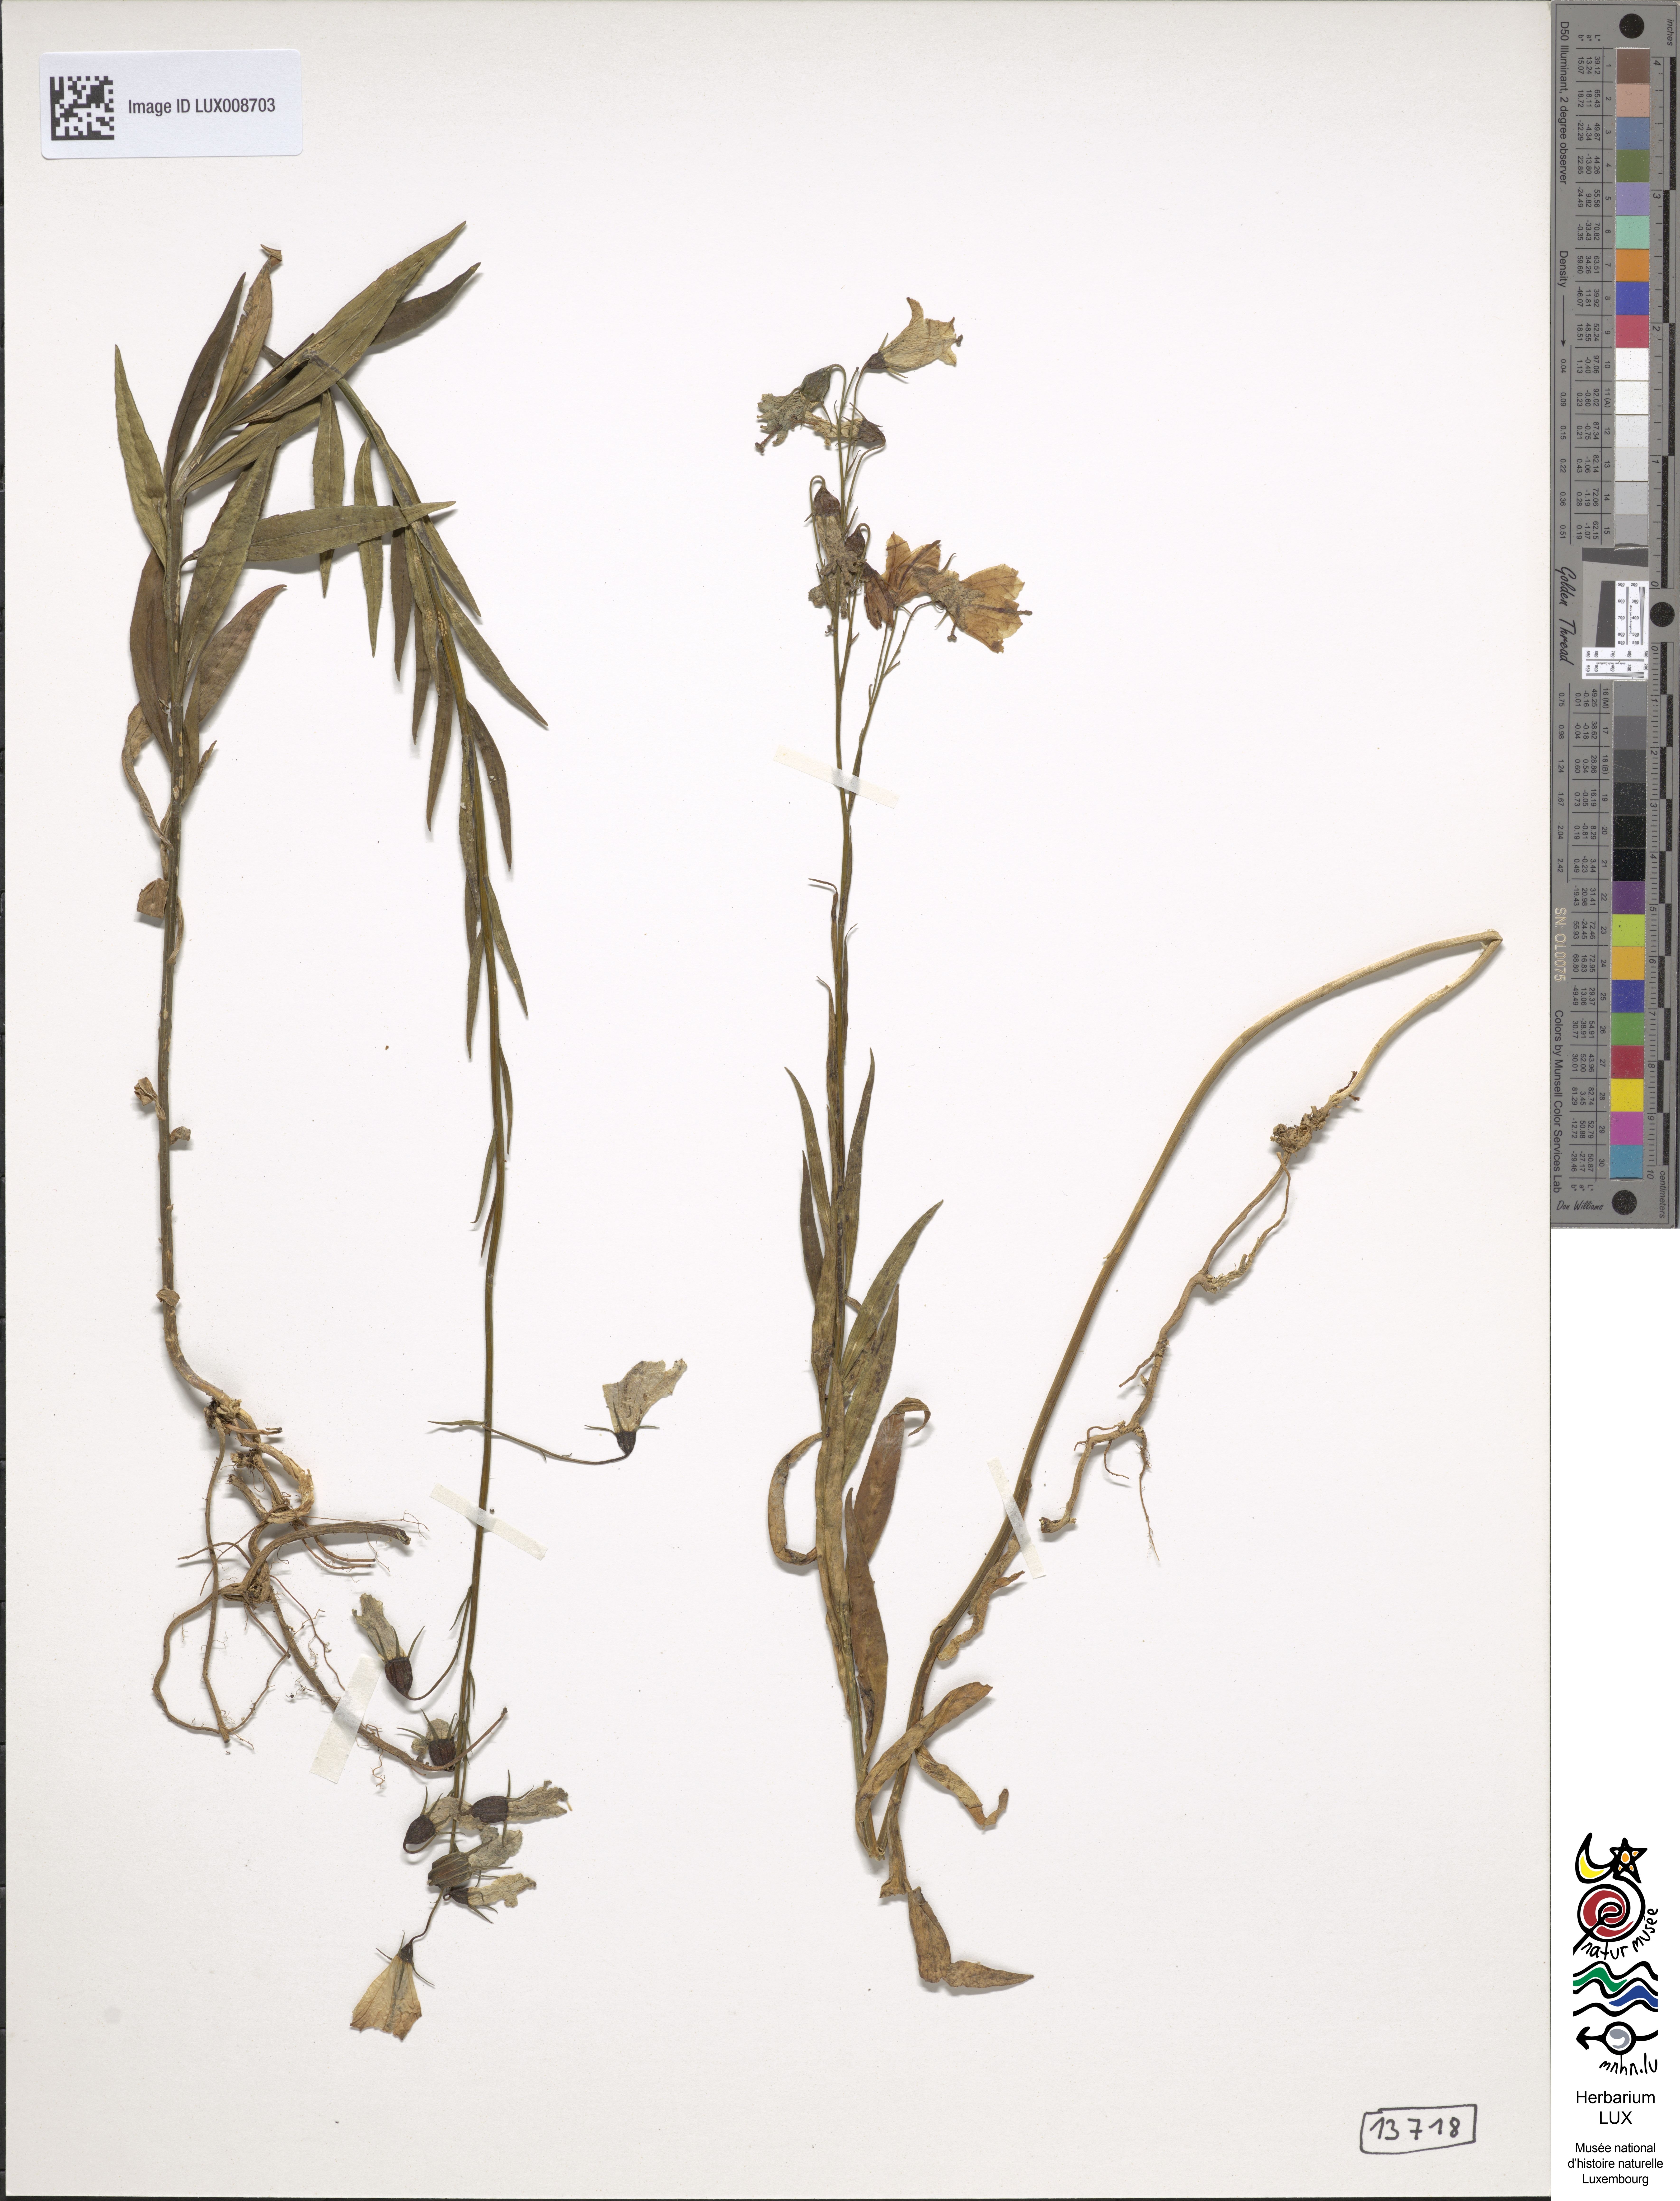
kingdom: Plantae
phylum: Tracheophyta
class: Magnoliopsida
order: Asterales
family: Campanulaceae
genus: Campanula
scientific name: Campanula
